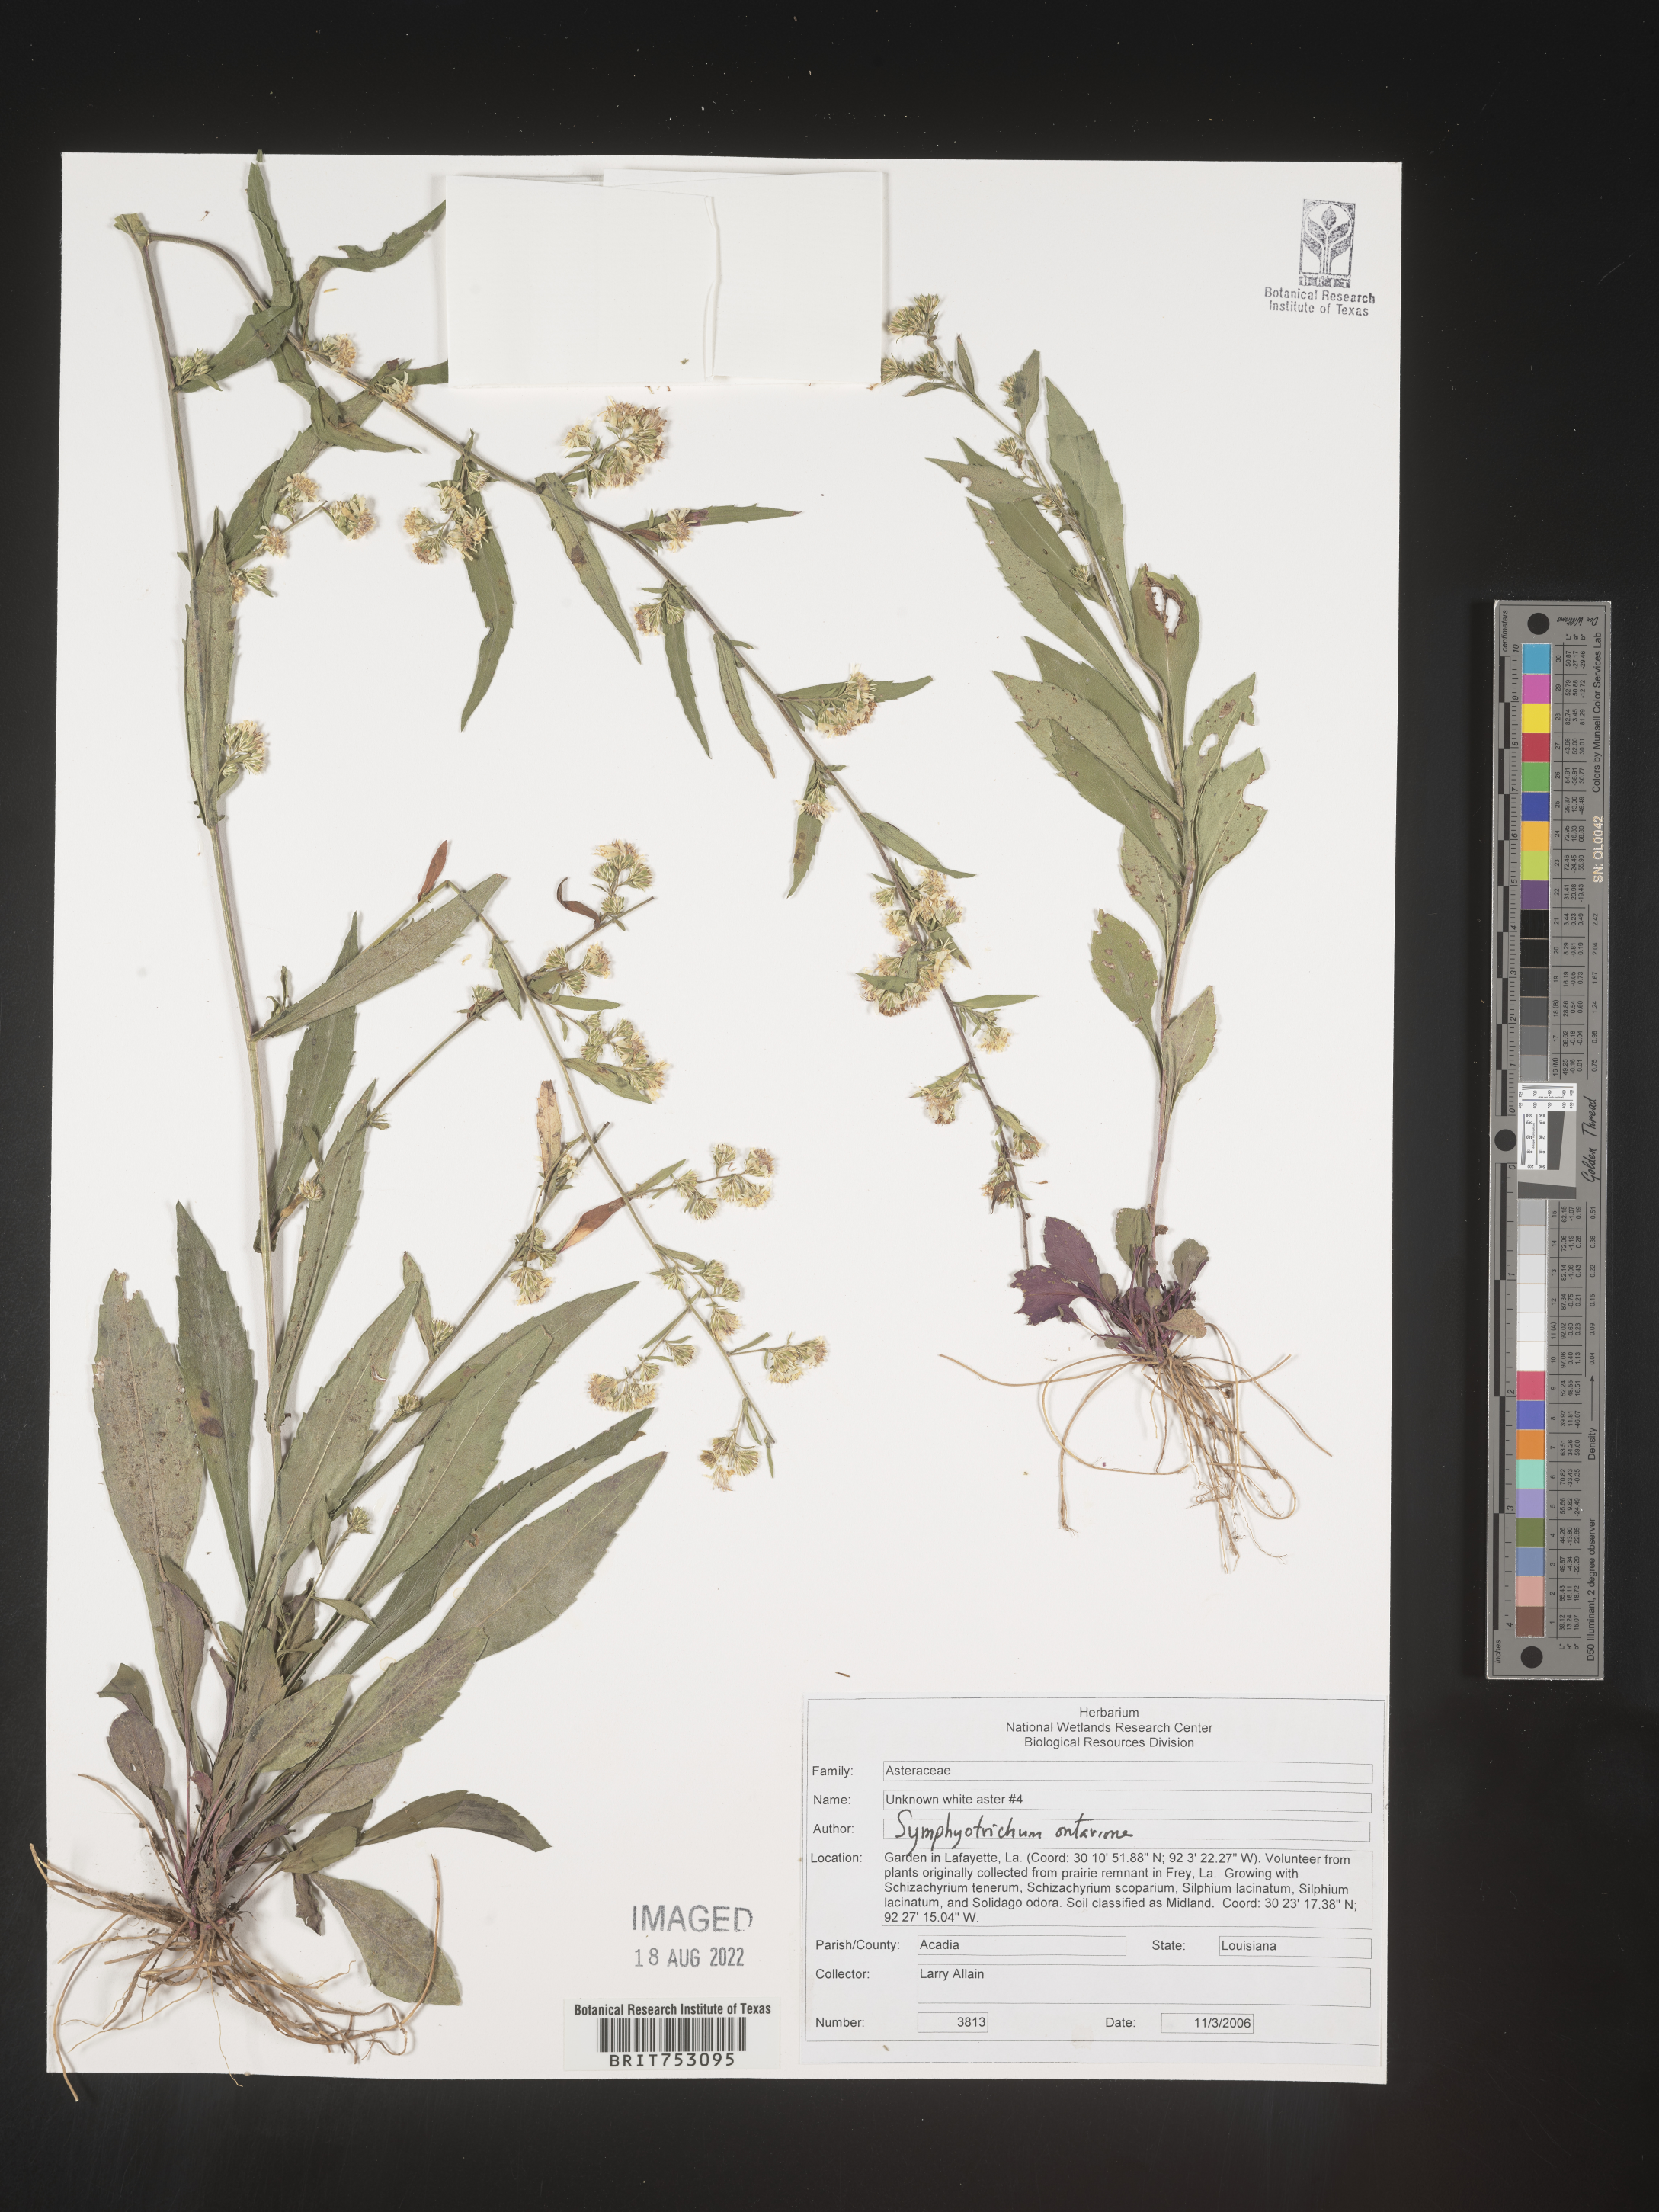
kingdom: Plantae
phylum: Tracheophyta
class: Magnoliopsida
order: Asterales
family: Asteraceae
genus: Symphyotrichum
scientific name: Symphyotrichum ontarionis
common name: Bottomland aster
